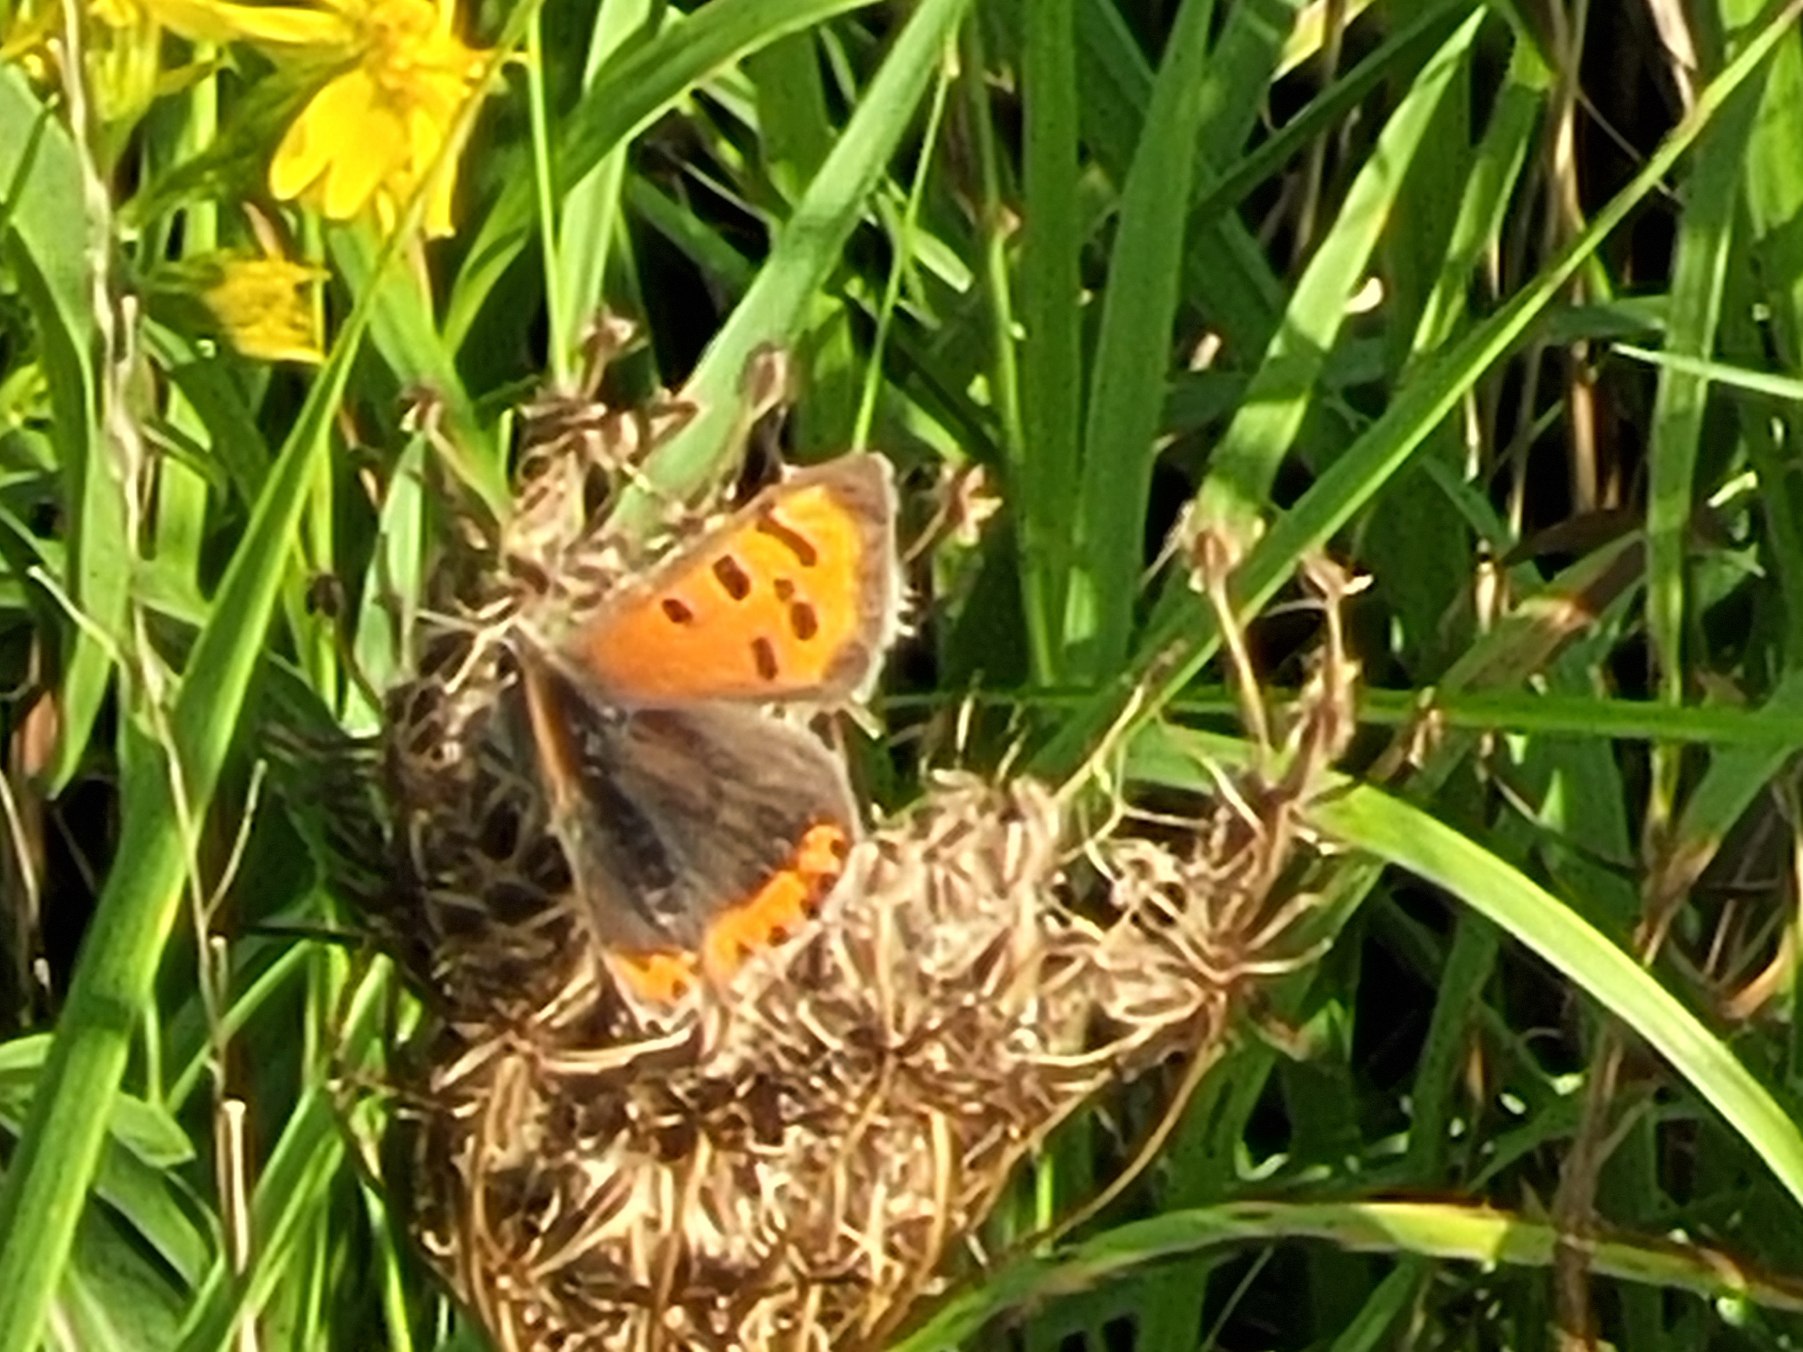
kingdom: Animalia
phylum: Arthropoda
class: Insecta
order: Lepidoptera
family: Lycaenidae
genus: Lycaena
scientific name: Lycaena phlaeas
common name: Lille ildfugl
